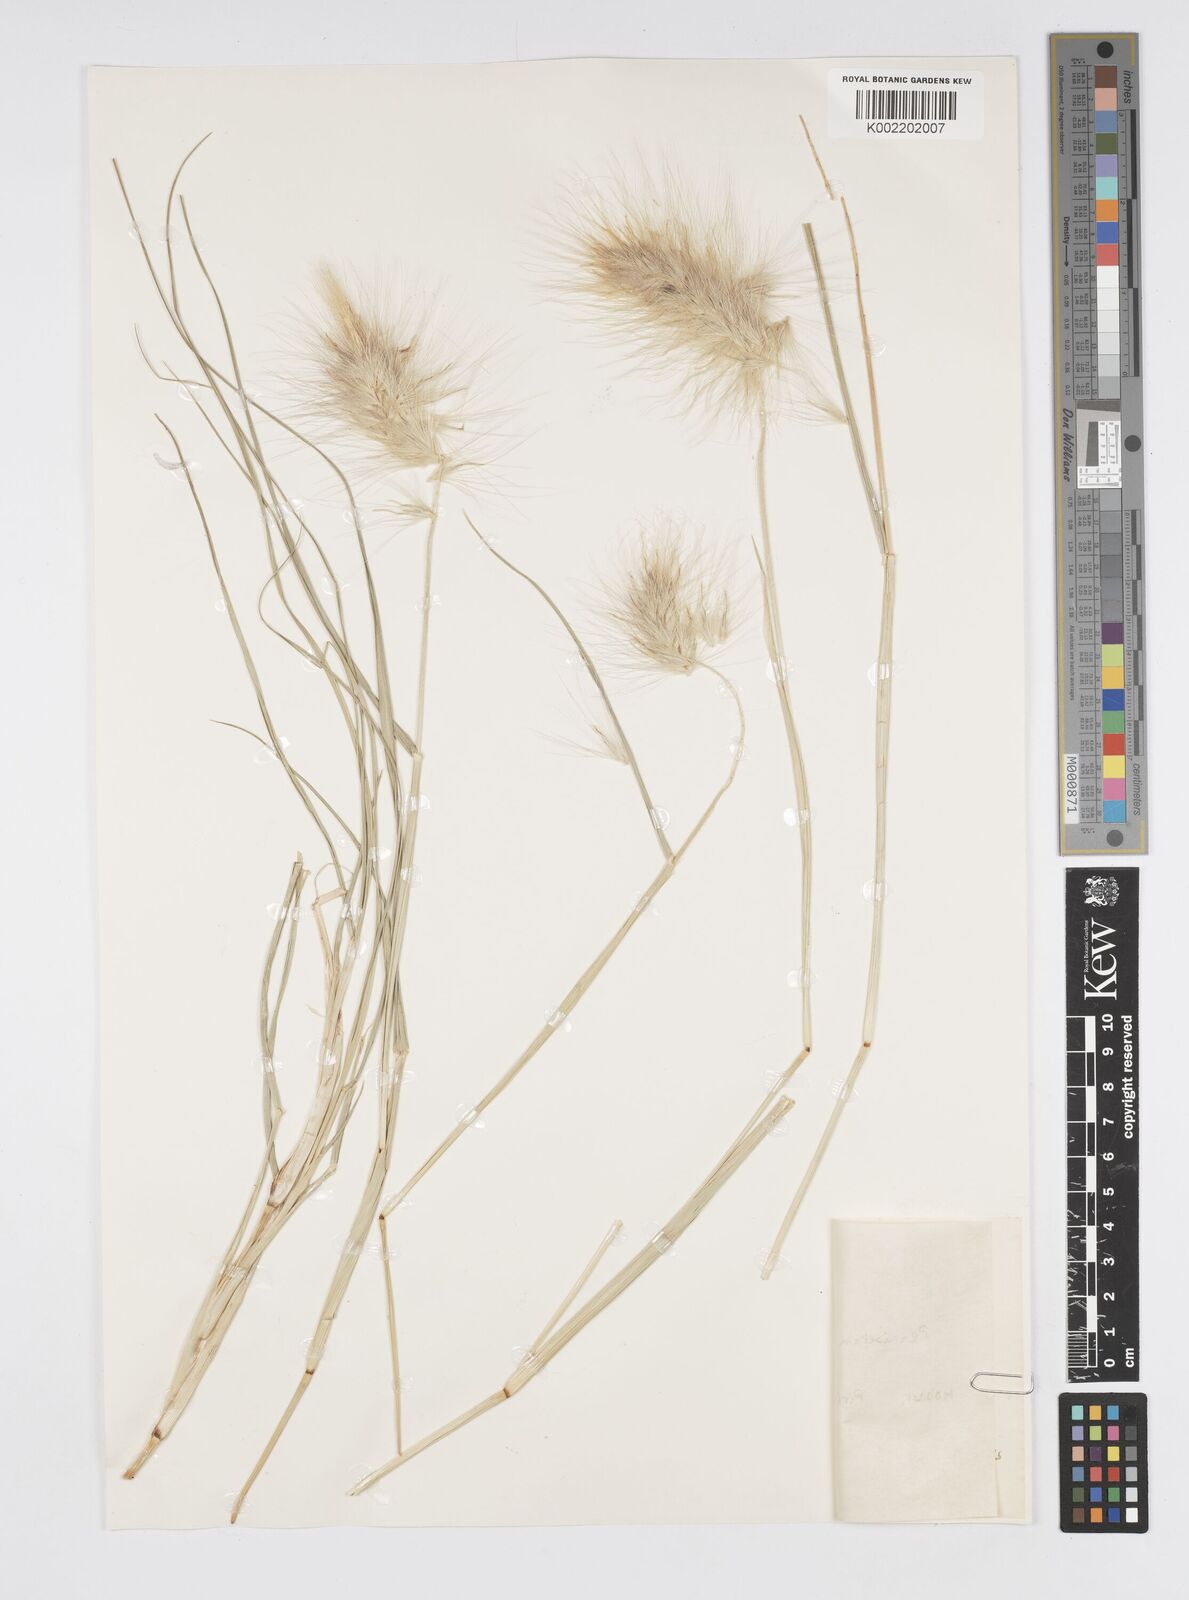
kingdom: Plantae
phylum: Tracheophyta
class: Liliopsida
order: Poales
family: Poaceae
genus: Cenchrus
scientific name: Cenchrus longisetus
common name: Feathertop
